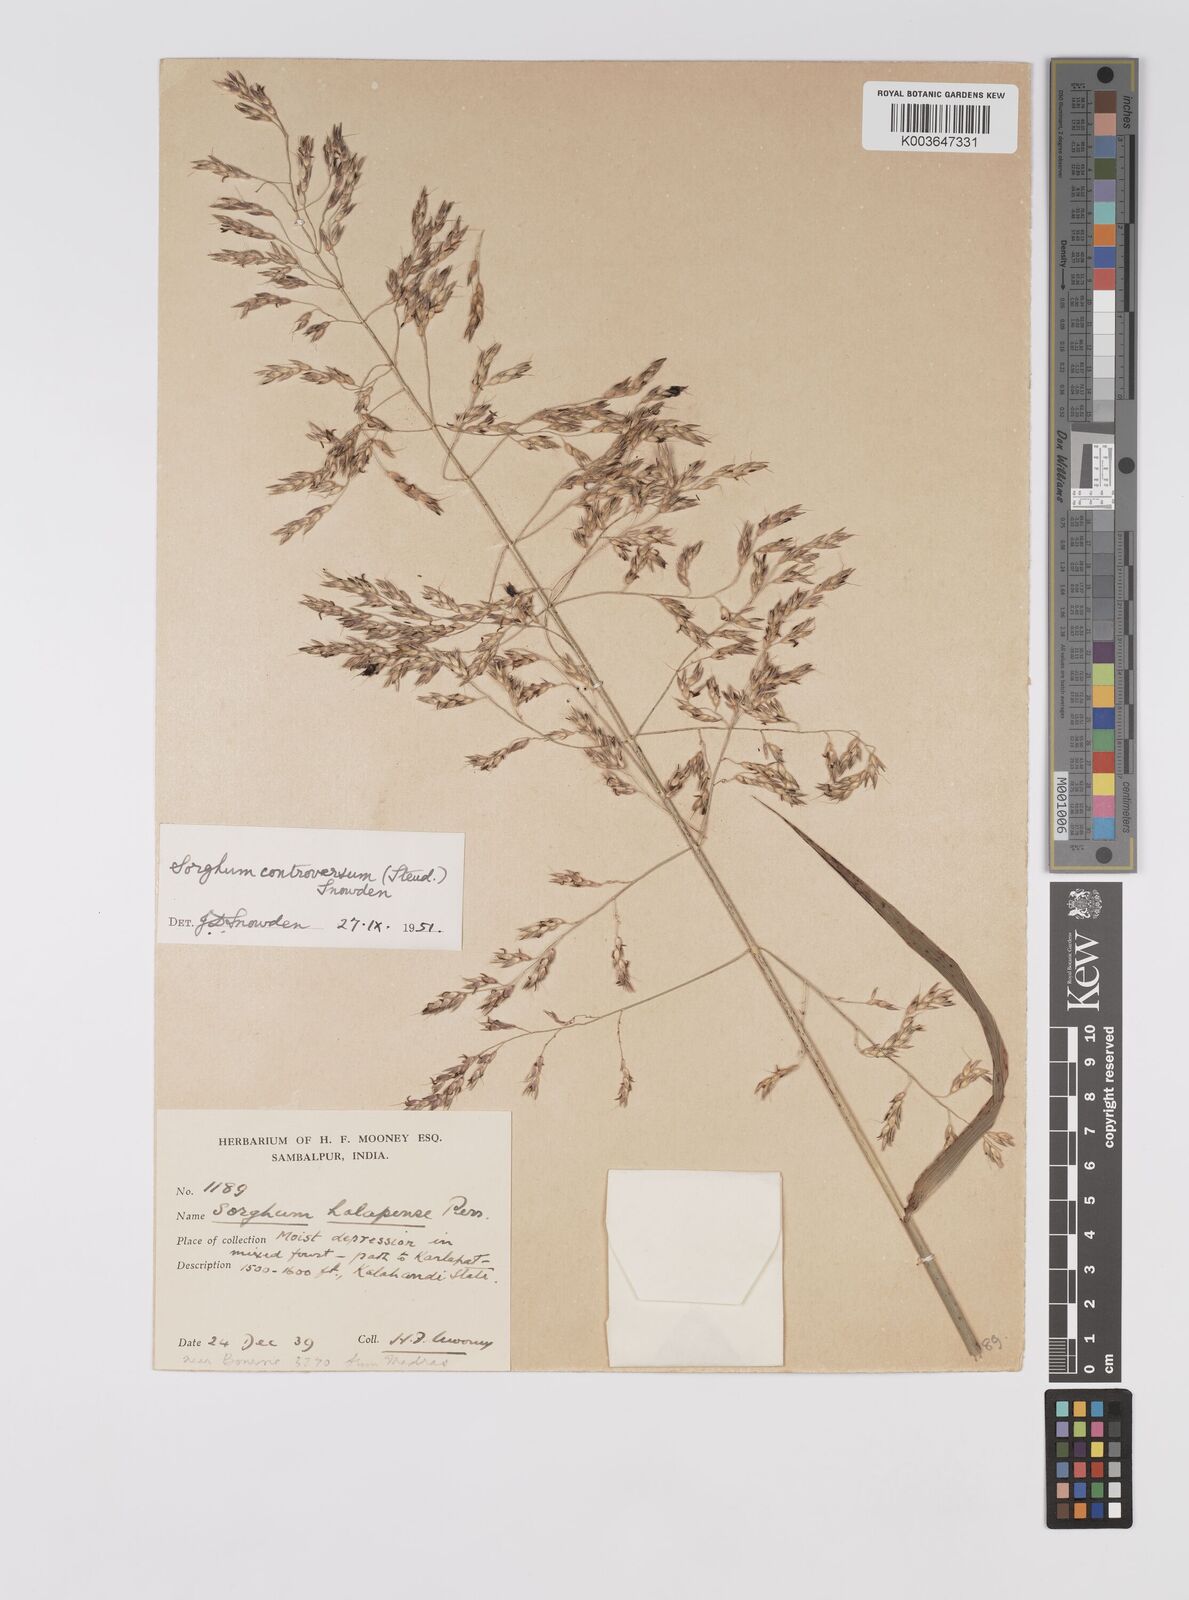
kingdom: Plantae
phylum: Tracheophyta
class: Liliopsida
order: Poales
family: Poaceae
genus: Sorghum
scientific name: Sorghum controversum
